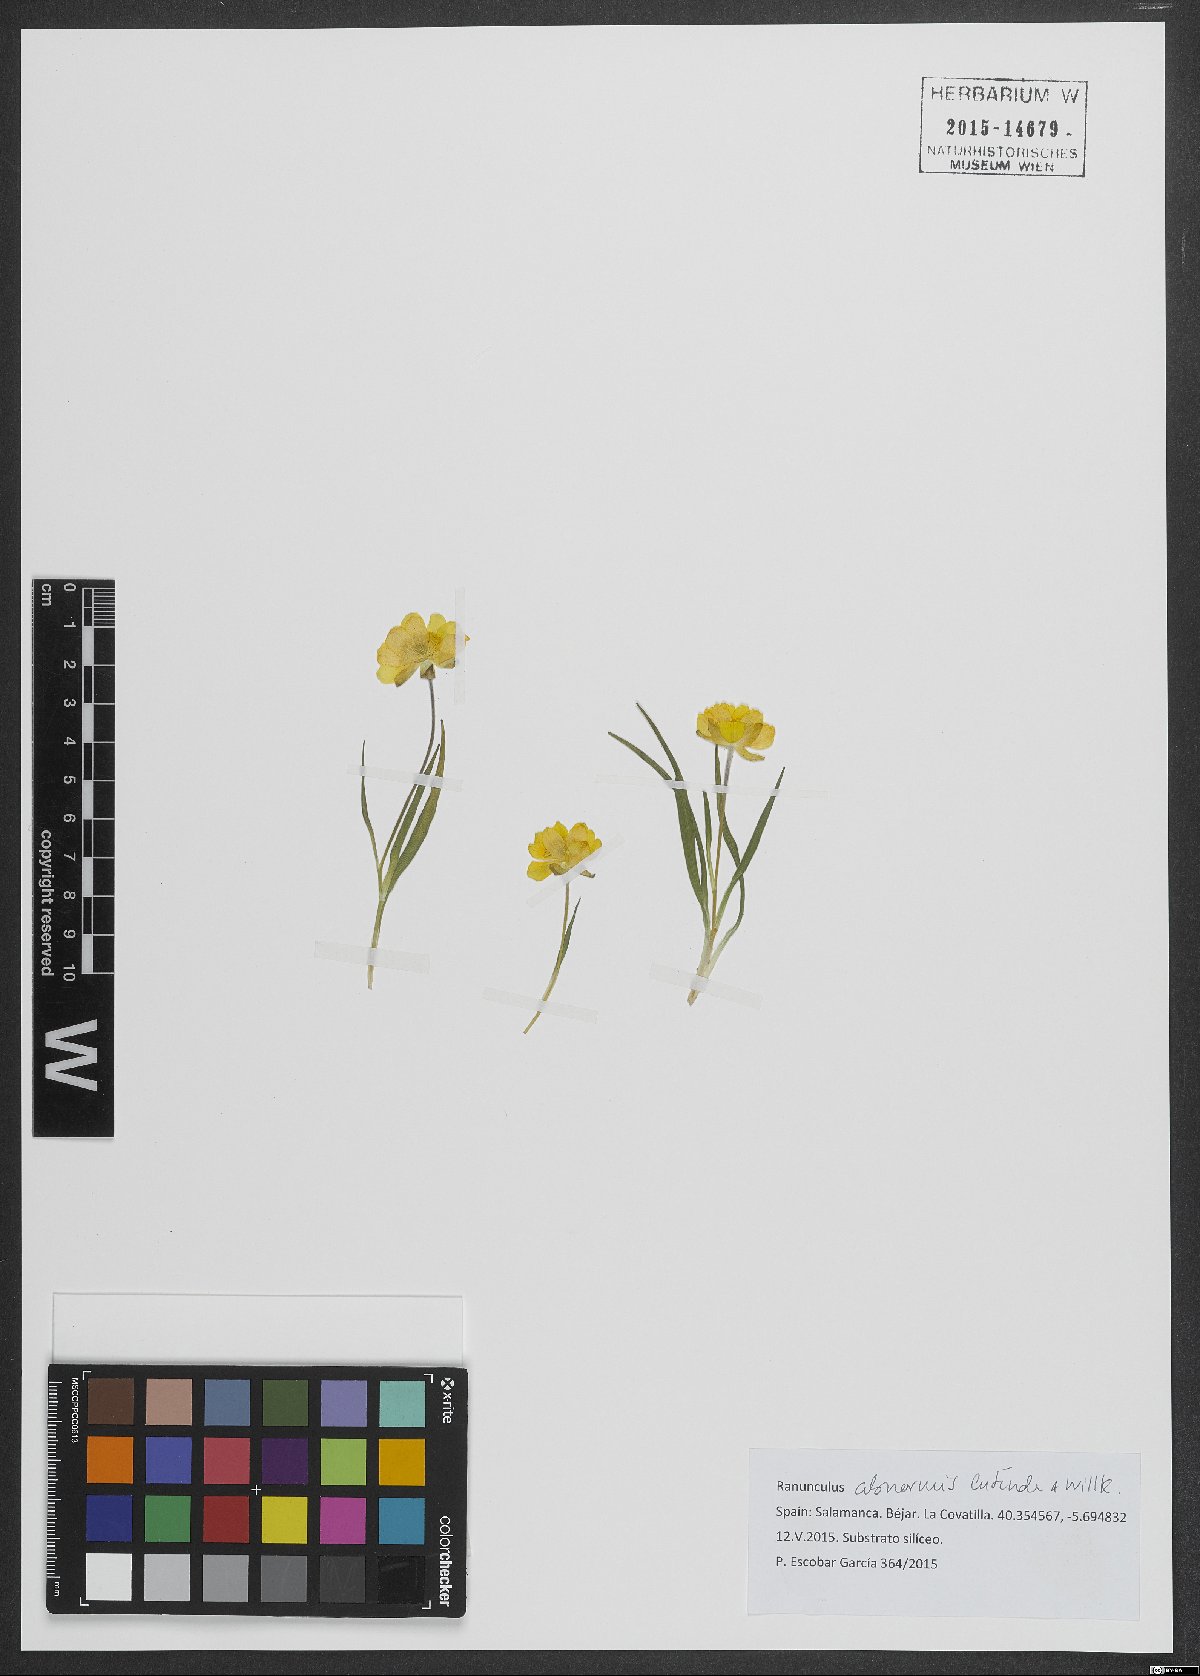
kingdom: Plantae
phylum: Tracheophyta
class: Magnoliopsida
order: Ranunculales
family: Ranunculaceae
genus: Ranunculus
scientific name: Ranunculus abnormis
